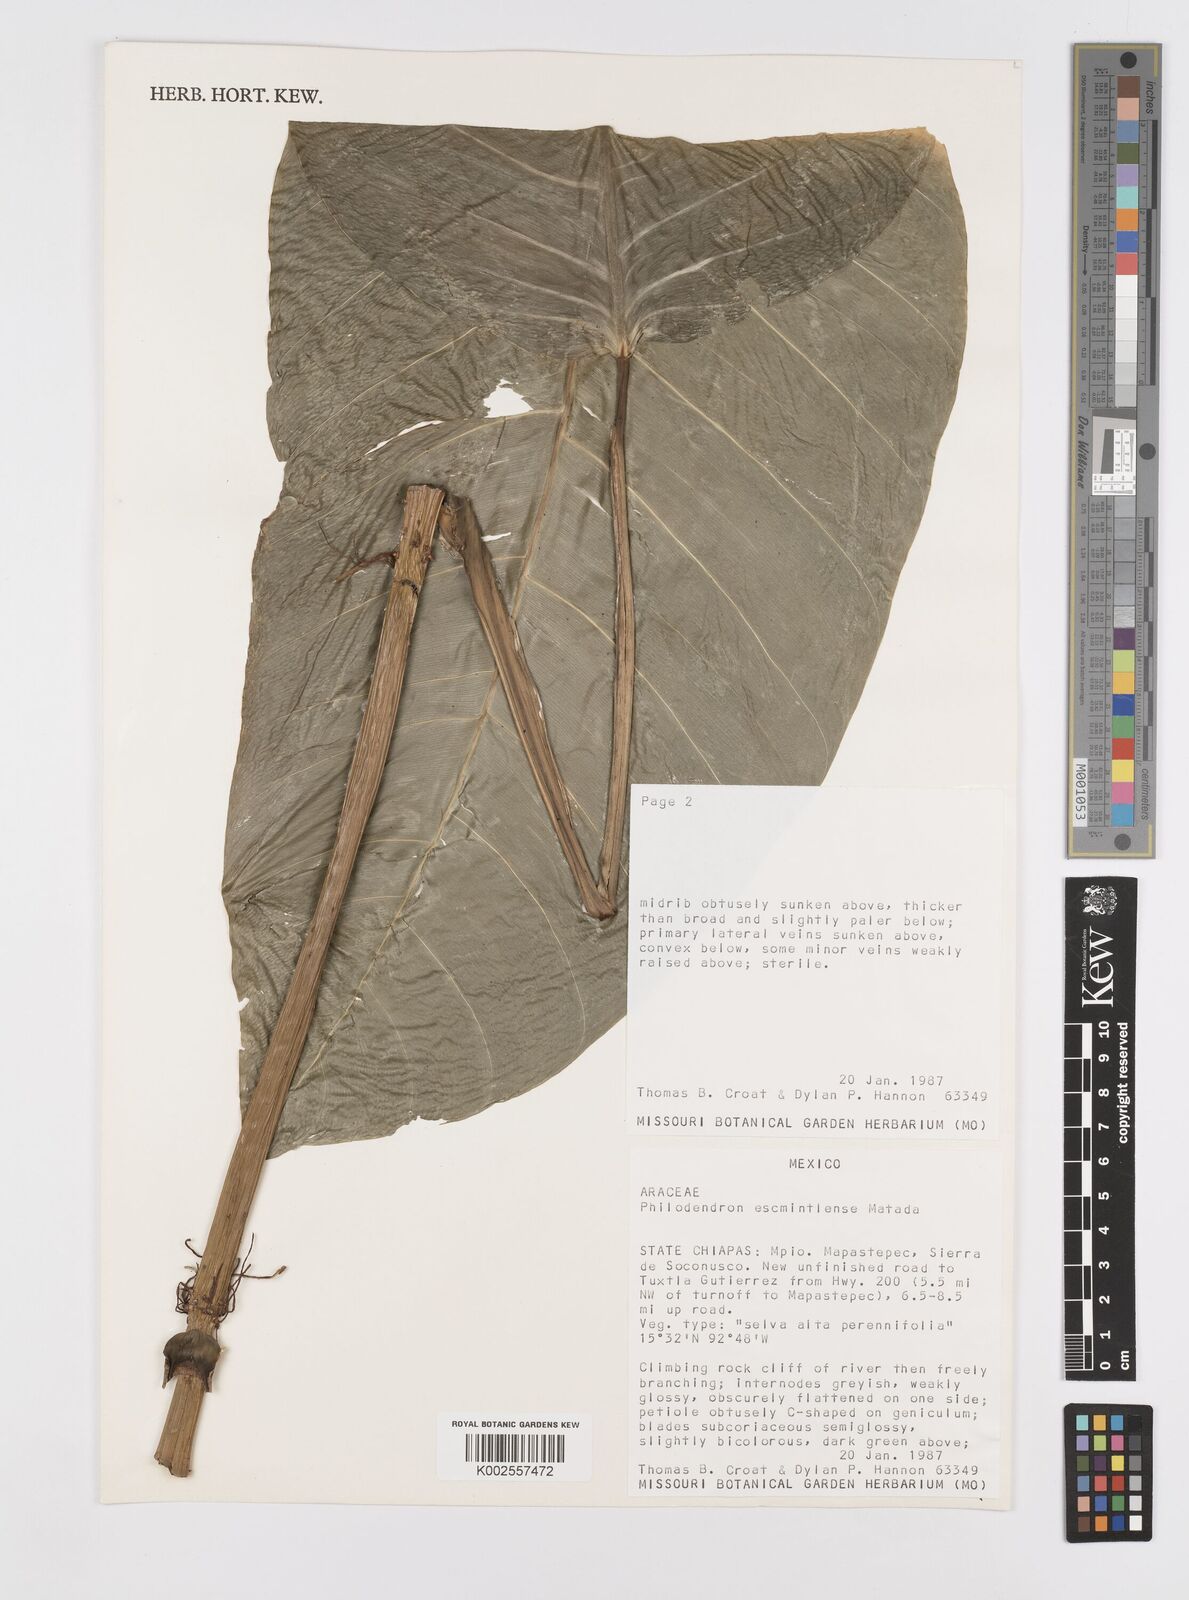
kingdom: Plantae
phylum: Tracheophyta
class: Liliopsida
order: Alismatales
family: Araceae
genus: Philodendron
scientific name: Philodendron escuintlense
